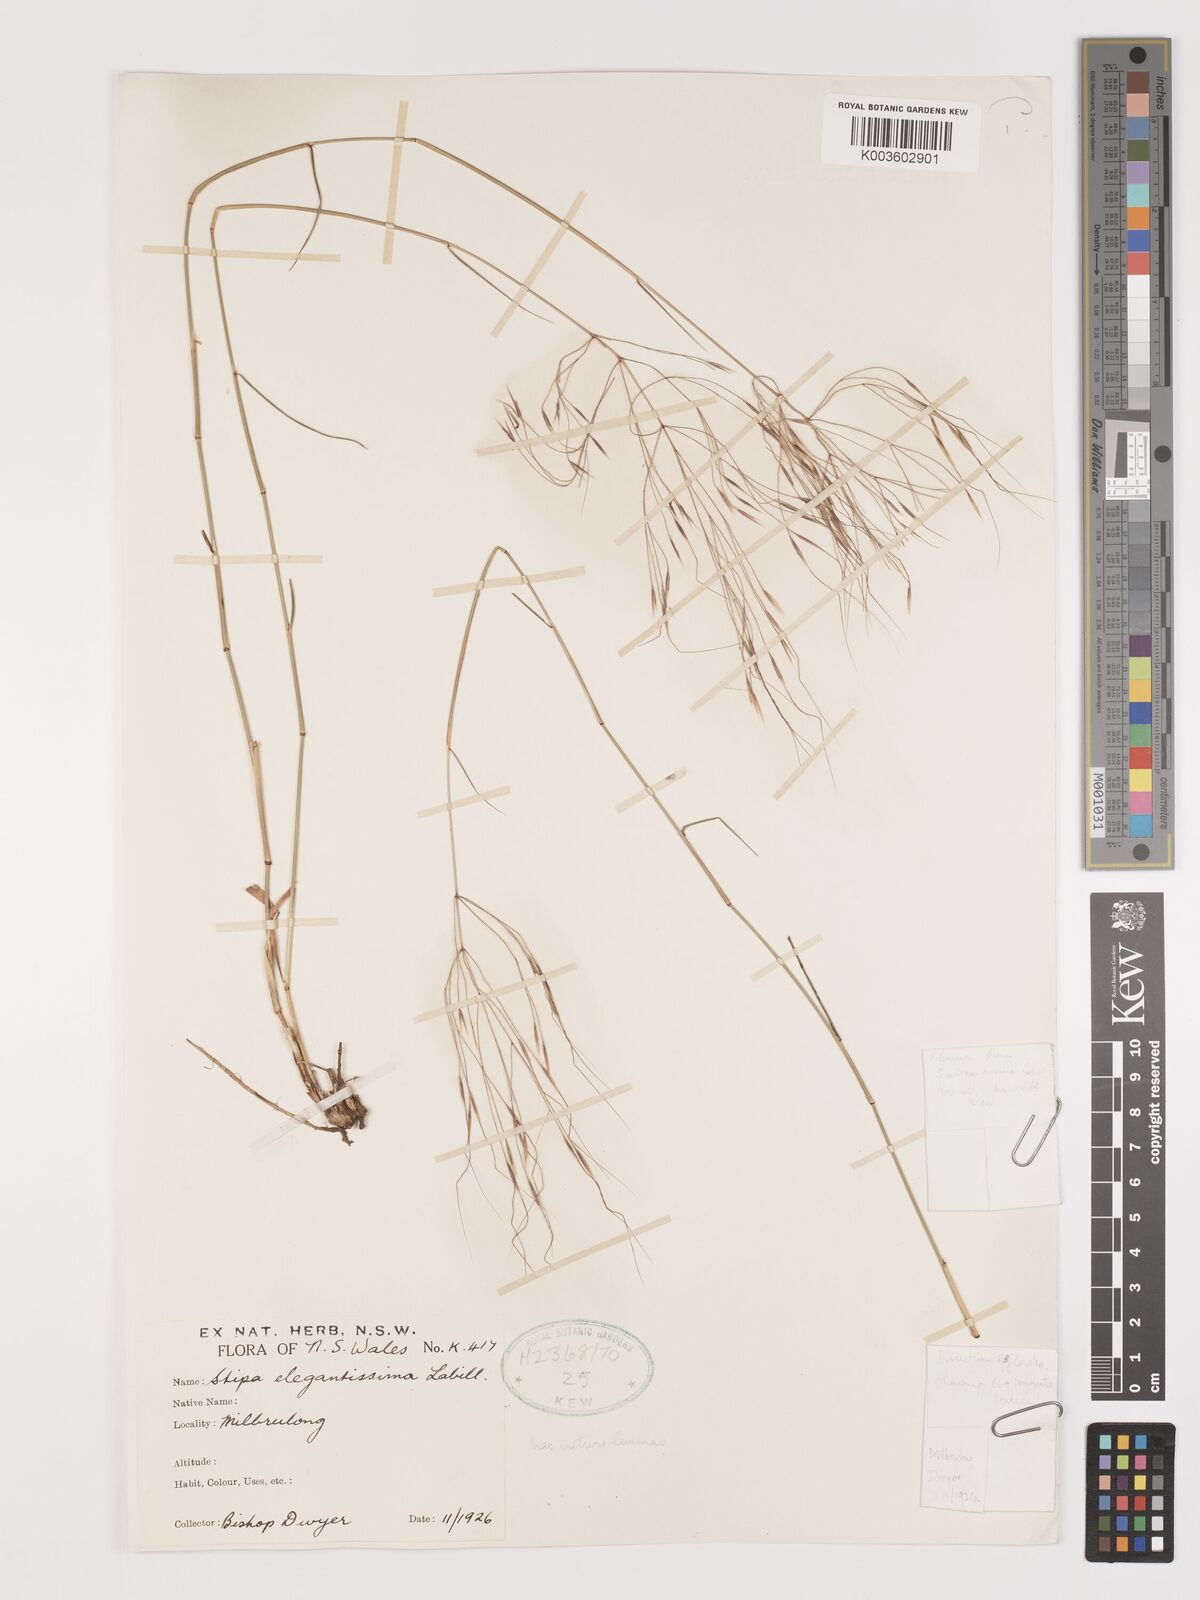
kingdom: Plantae
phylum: Tracheophyta
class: Liliopsida
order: Poales
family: Poaceae
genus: Austrostipa
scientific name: Austrostipa elegantissima
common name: Feather spear grass
